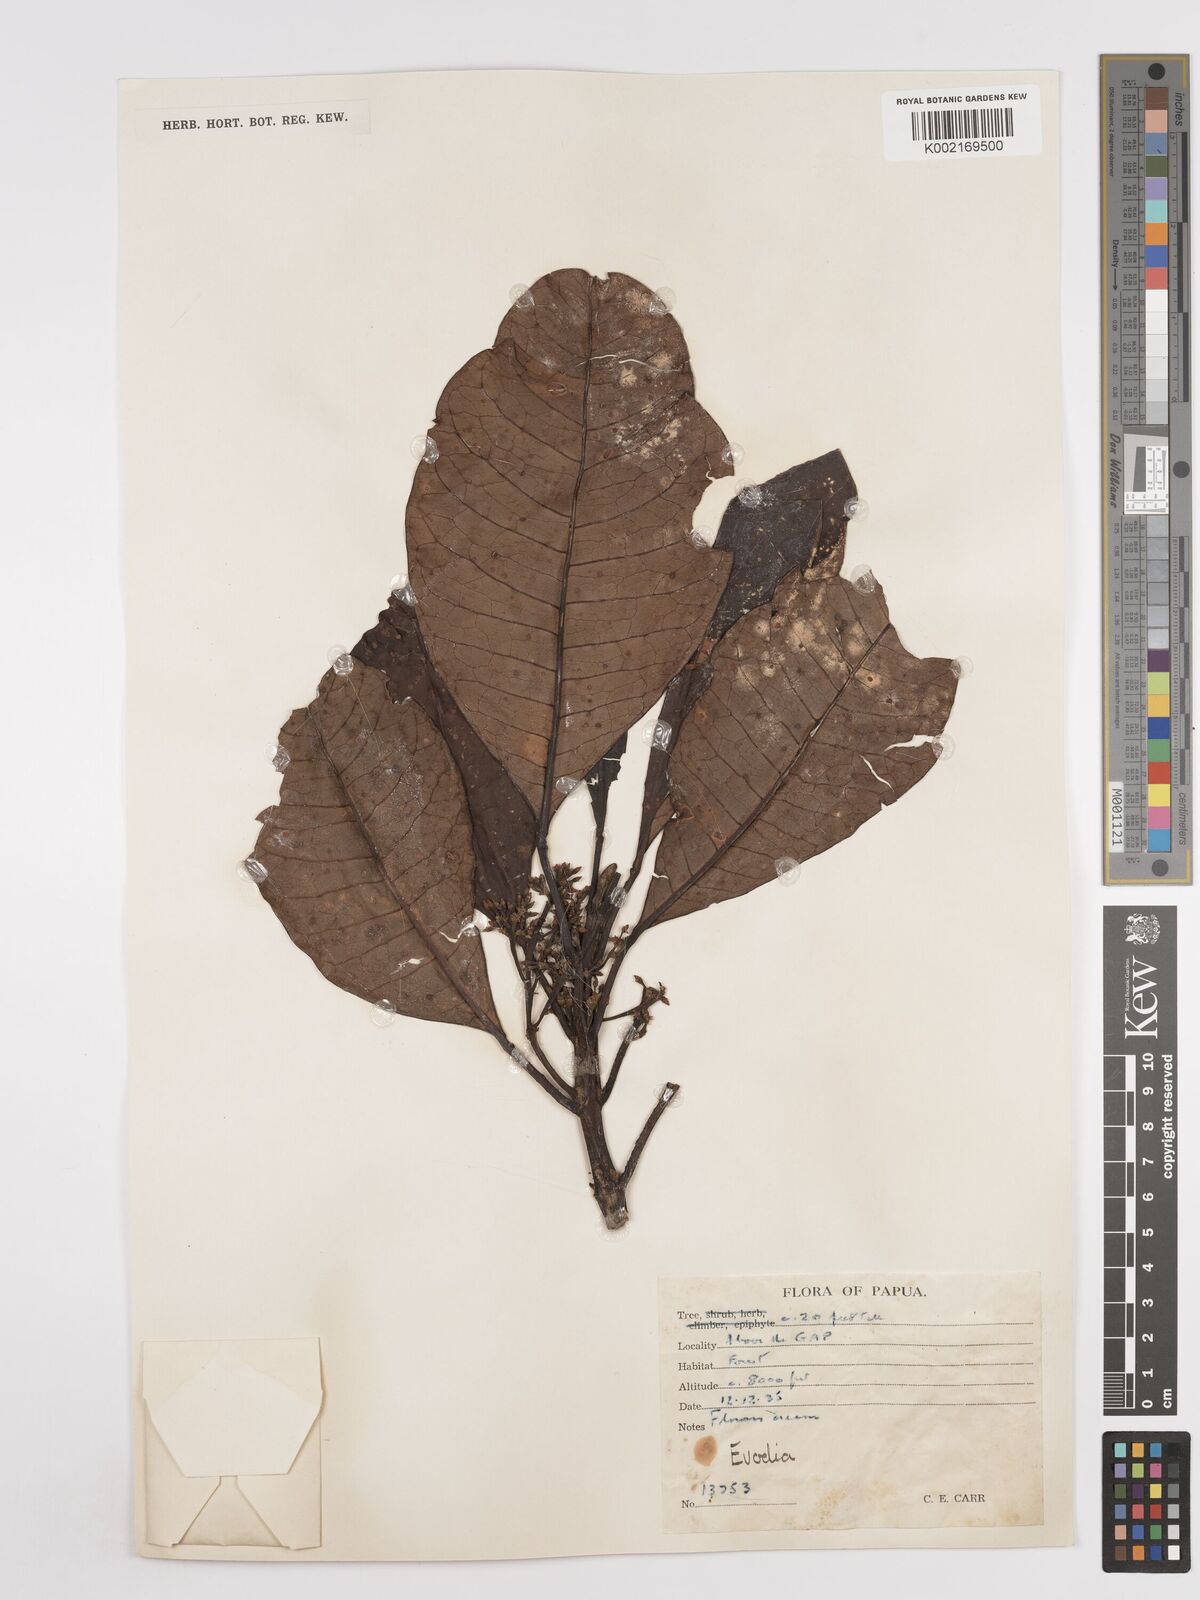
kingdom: Plantae
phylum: Tracheophyta
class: Magnoliopsida
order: Sapindales
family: Rutaceae
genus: Euodia
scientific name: Euodia
